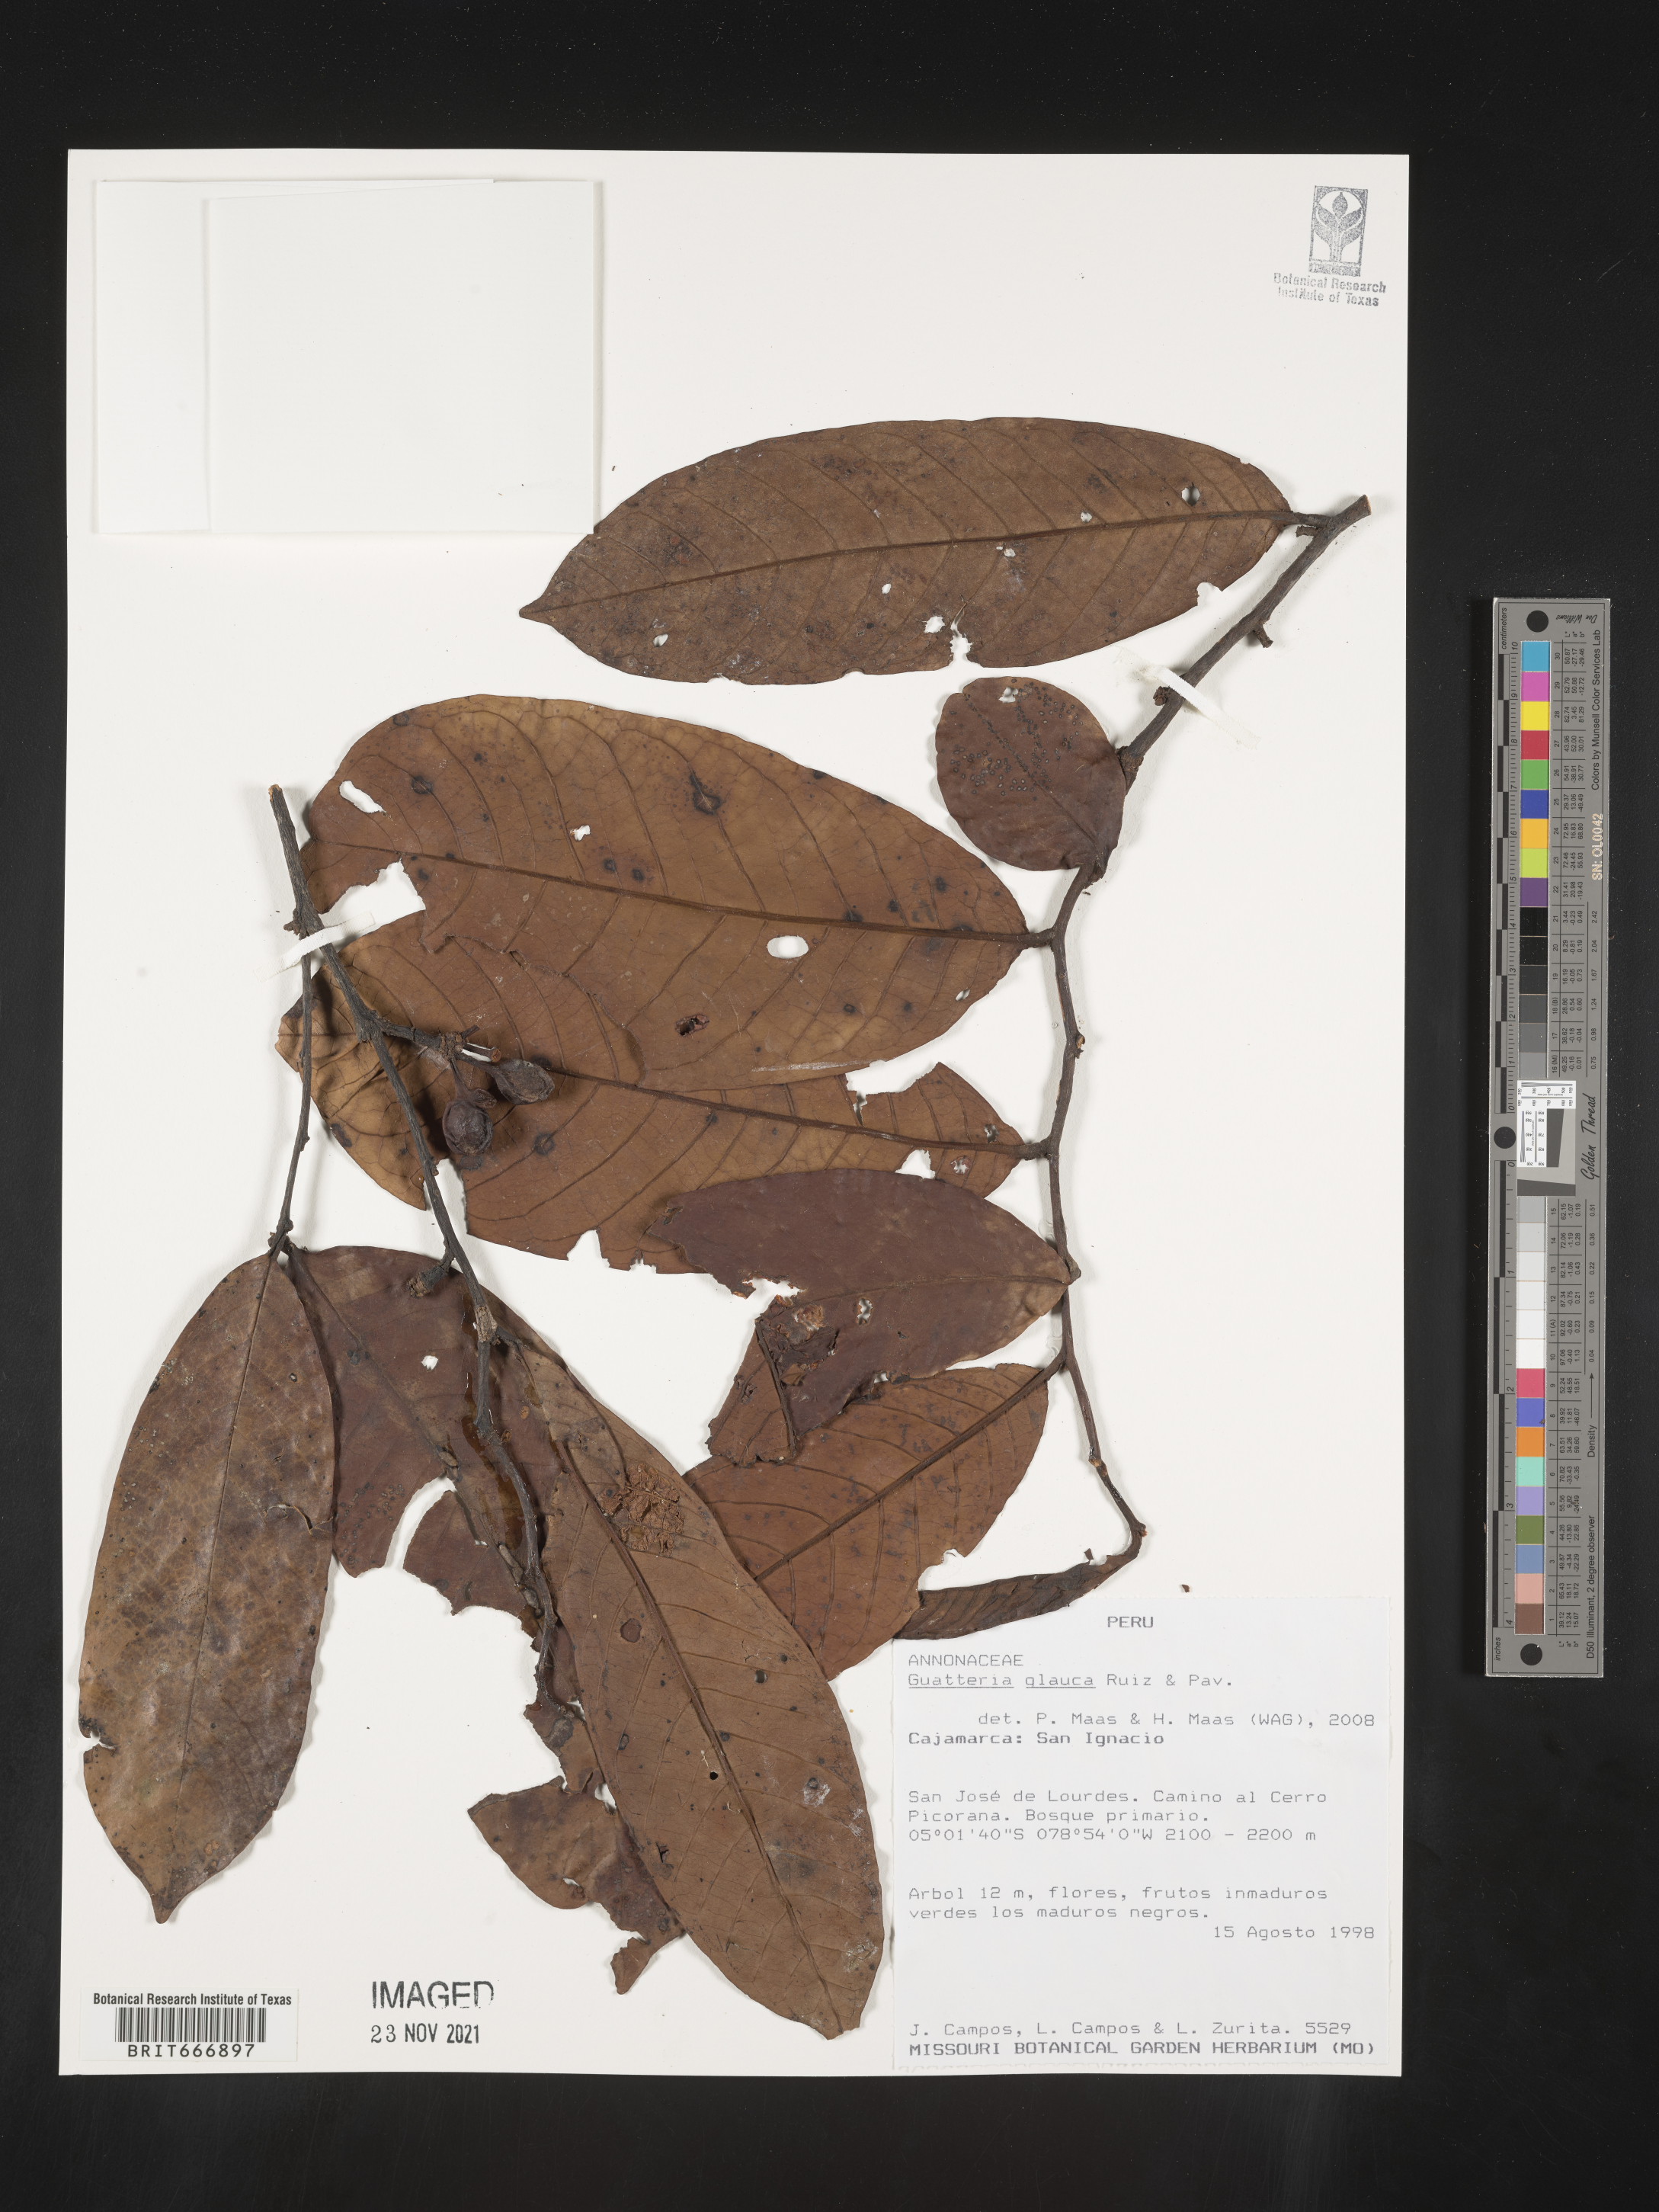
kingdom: Plantae
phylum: Tracheophyta
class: Magnoliopsida
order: Magnoliales
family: Annonaceae
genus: Guatteria
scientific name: Guatteria
